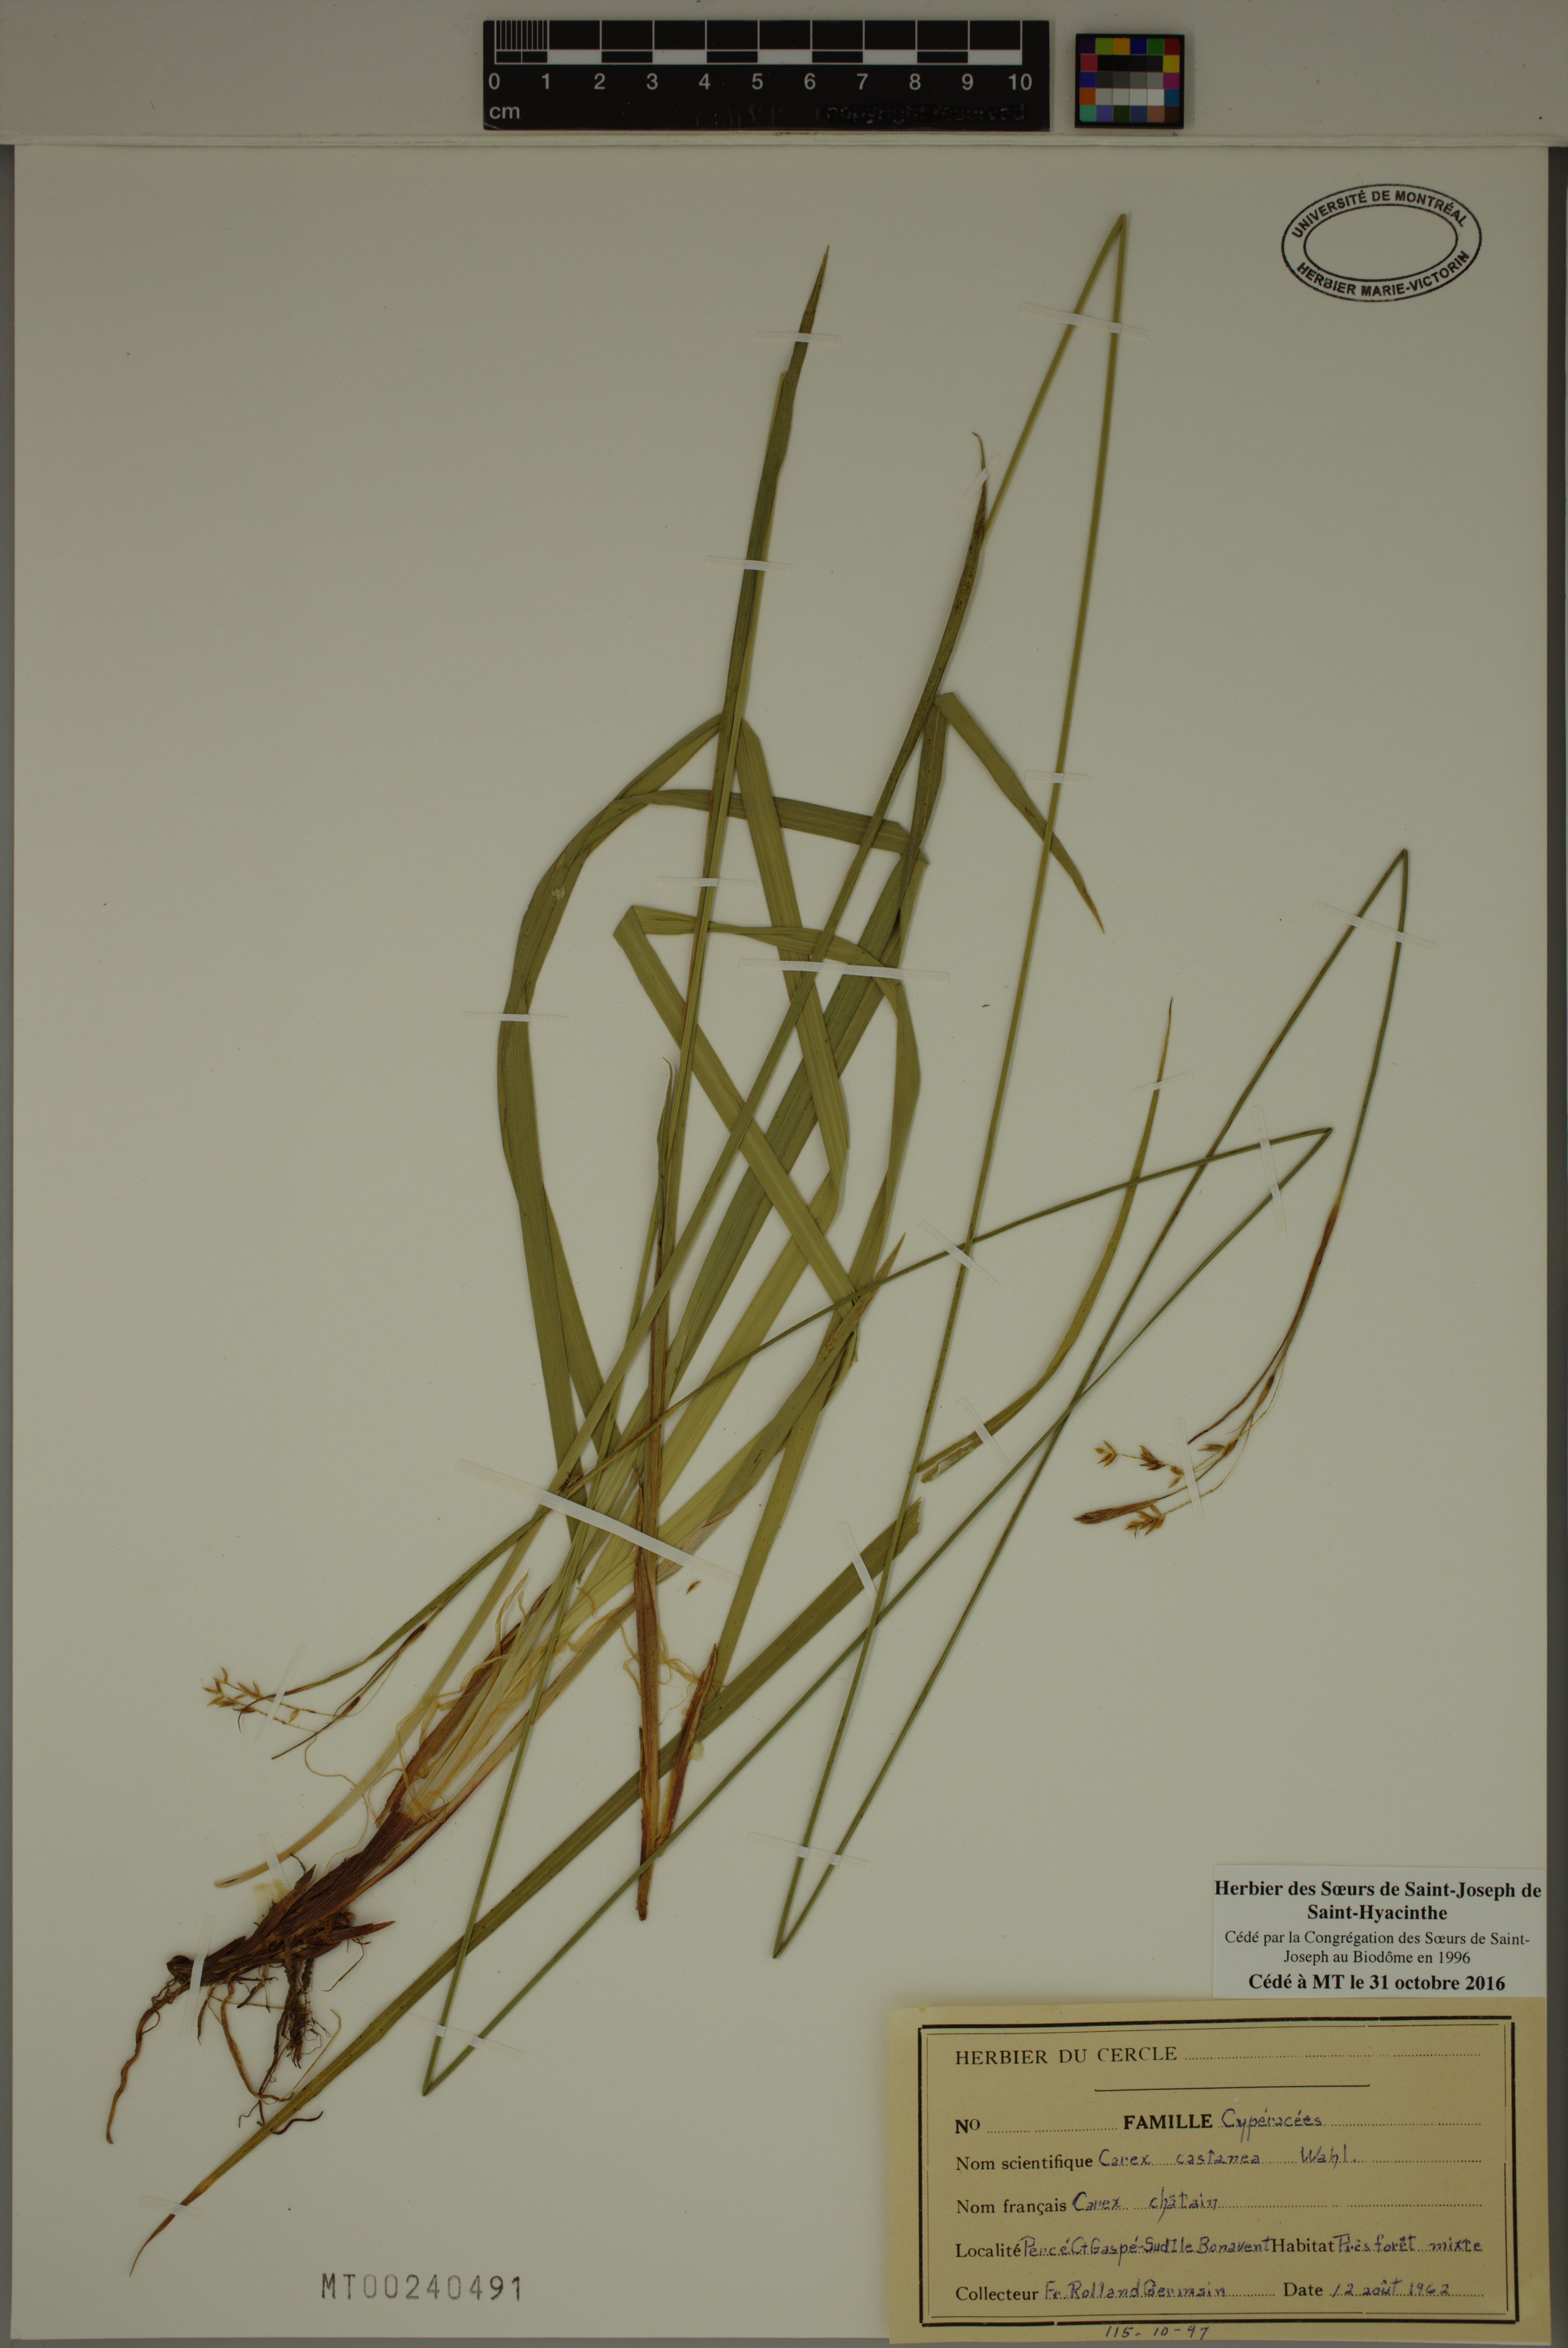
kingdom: Plantae
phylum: Tracheophyta
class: Liliopsida
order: Poales
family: Cyperaceae
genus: Carex
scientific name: Carex castanea
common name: Chestnut sedge
